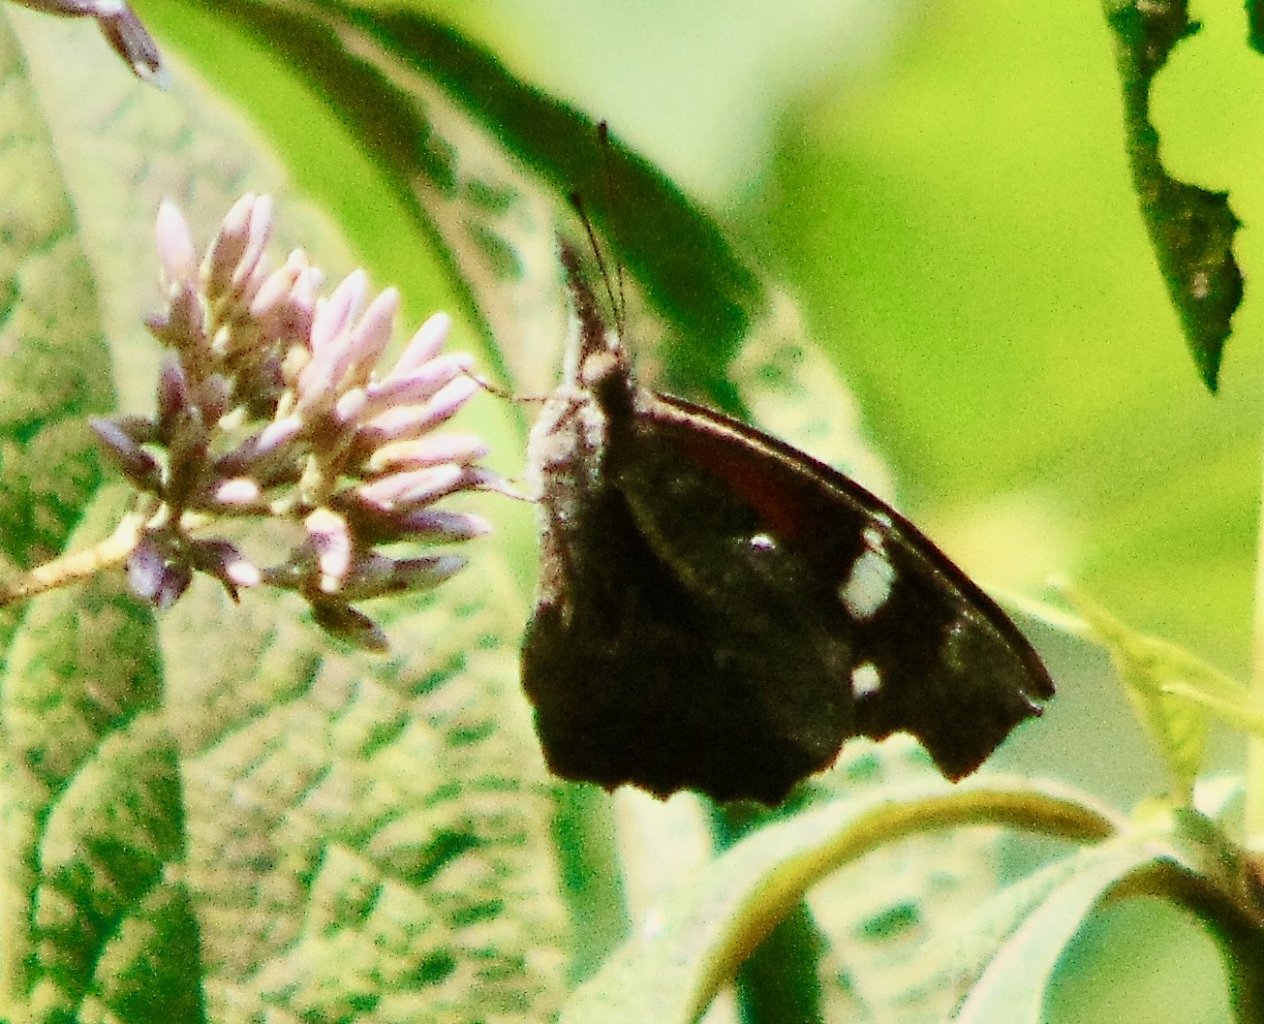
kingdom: Animalia
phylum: Arthropoda
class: Insecta
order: Lepidoptera
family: Nymphalidae
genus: Libytheana
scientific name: Libytheana carinenta
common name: American Snout
